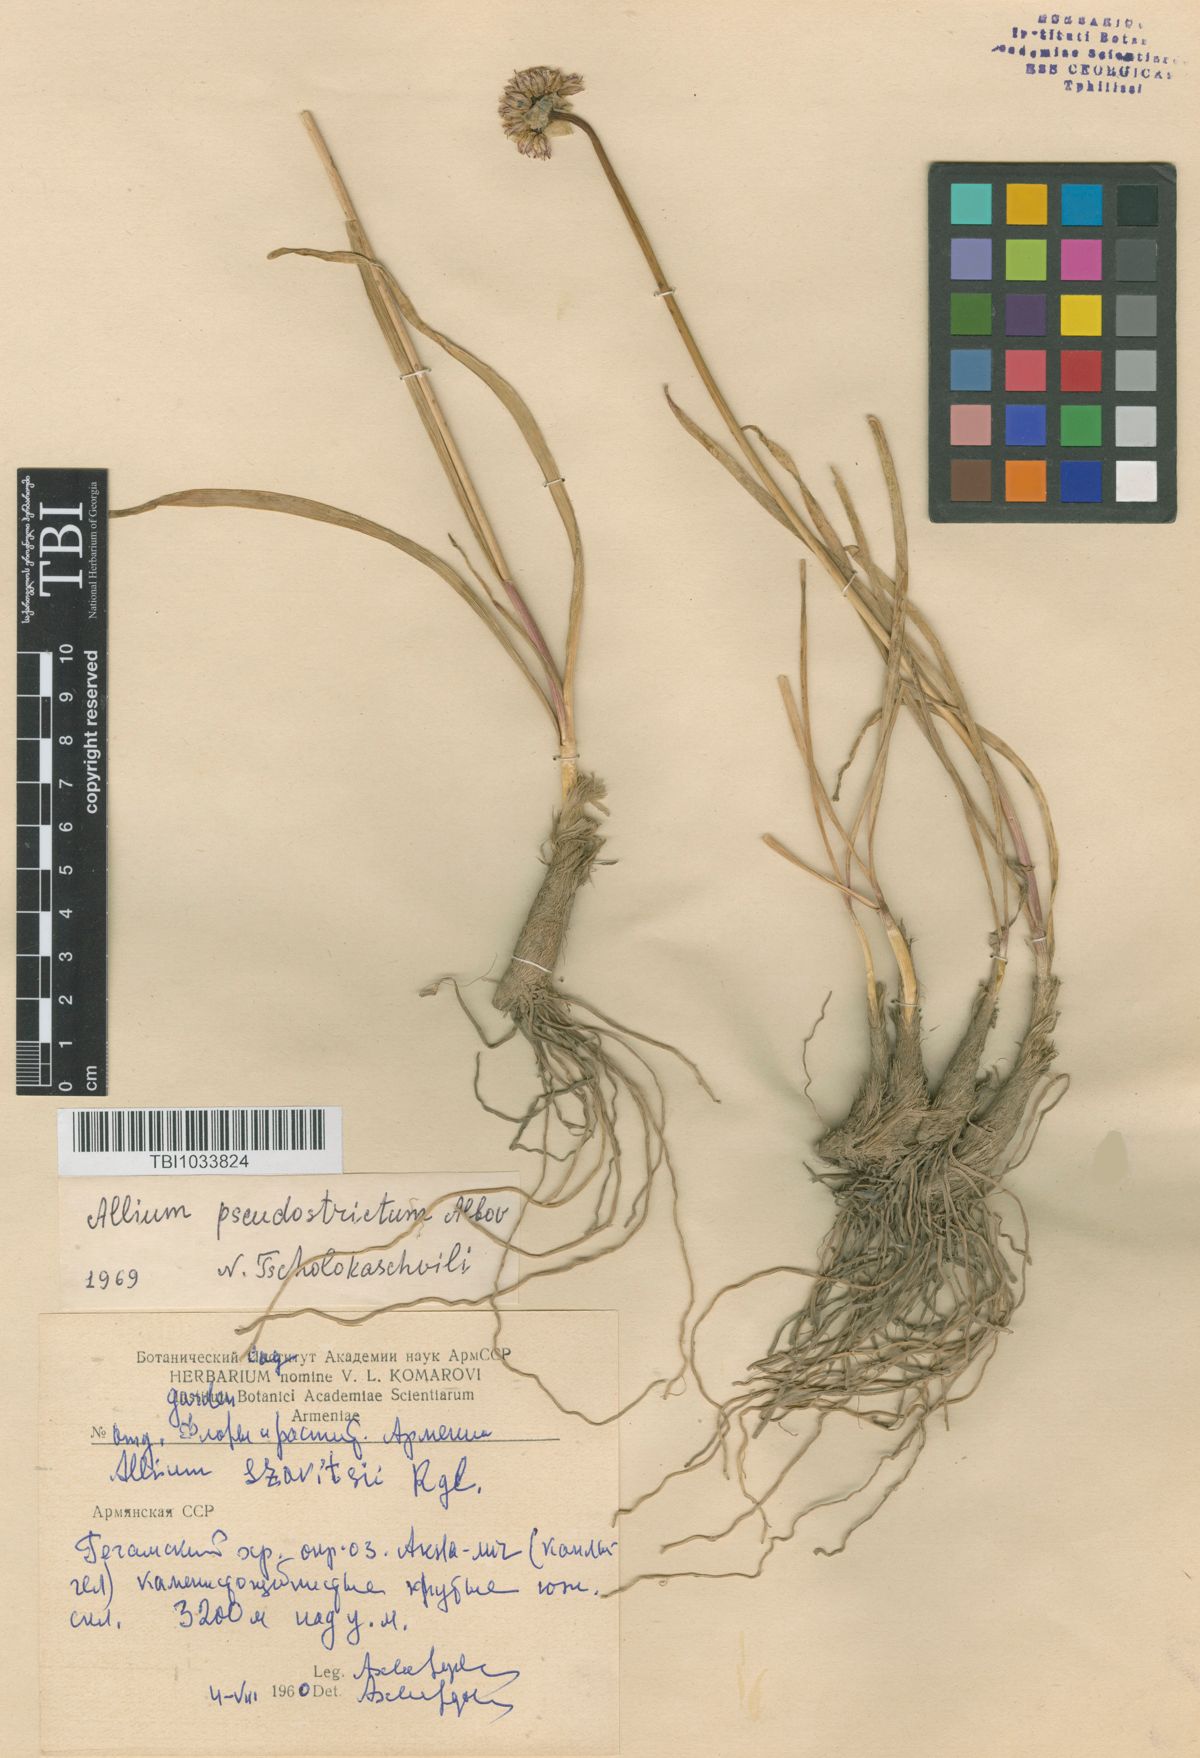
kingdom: Plantae
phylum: Tracheophyta
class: Liliopsida
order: Asparagales
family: Amaryllidaceae
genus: Allium
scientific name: Allium pseudostrictum
